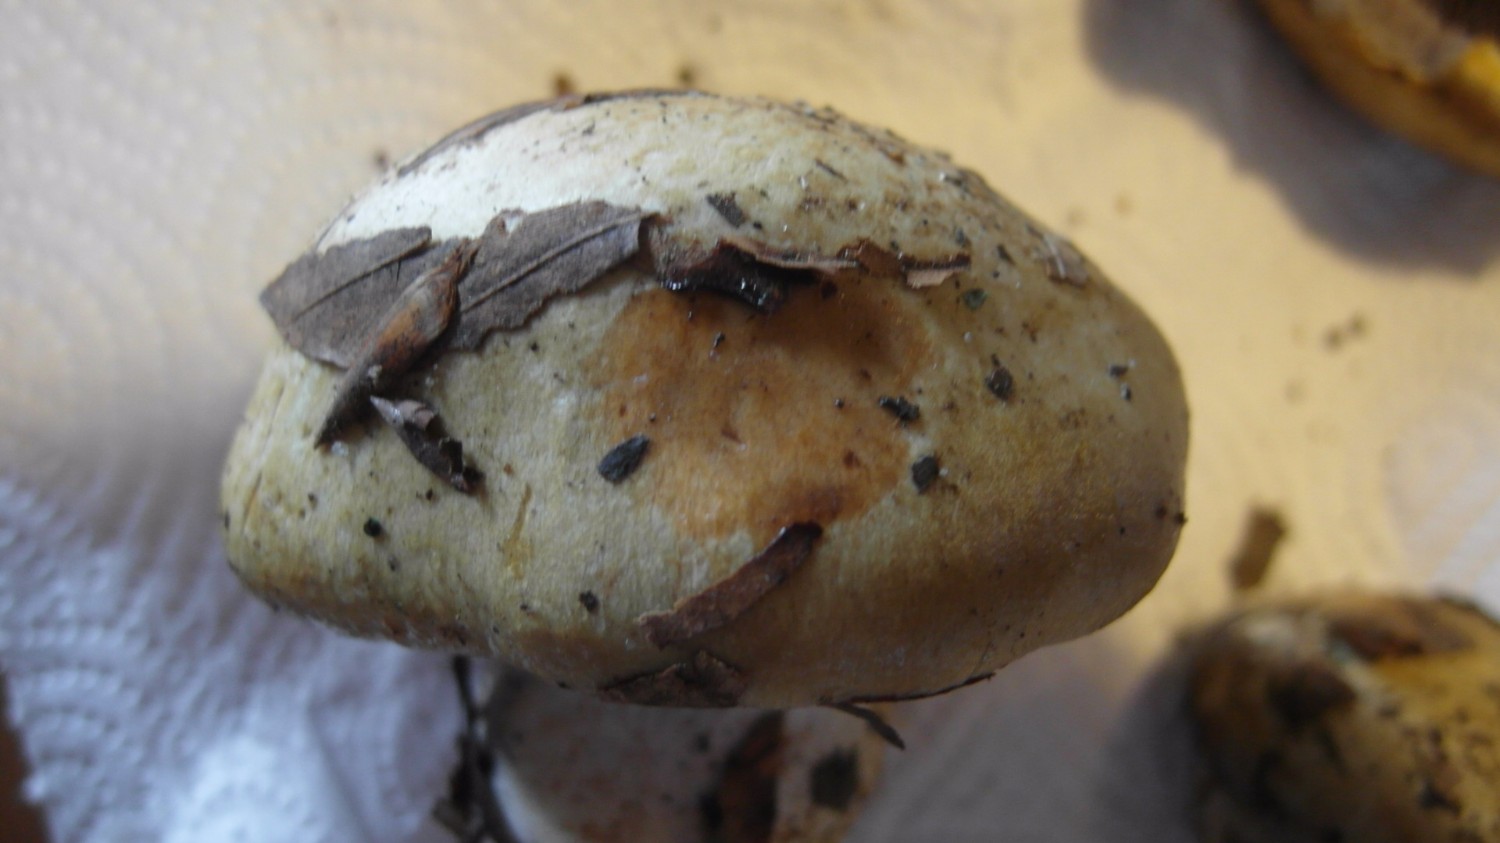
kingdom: Fungi
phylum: Basidiomycota
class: Agaricomycetes
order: Agaricales
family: Cortinariaceae
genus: Cortinarius
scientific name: Cortinarius anserinus
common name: bøge-slørhat
